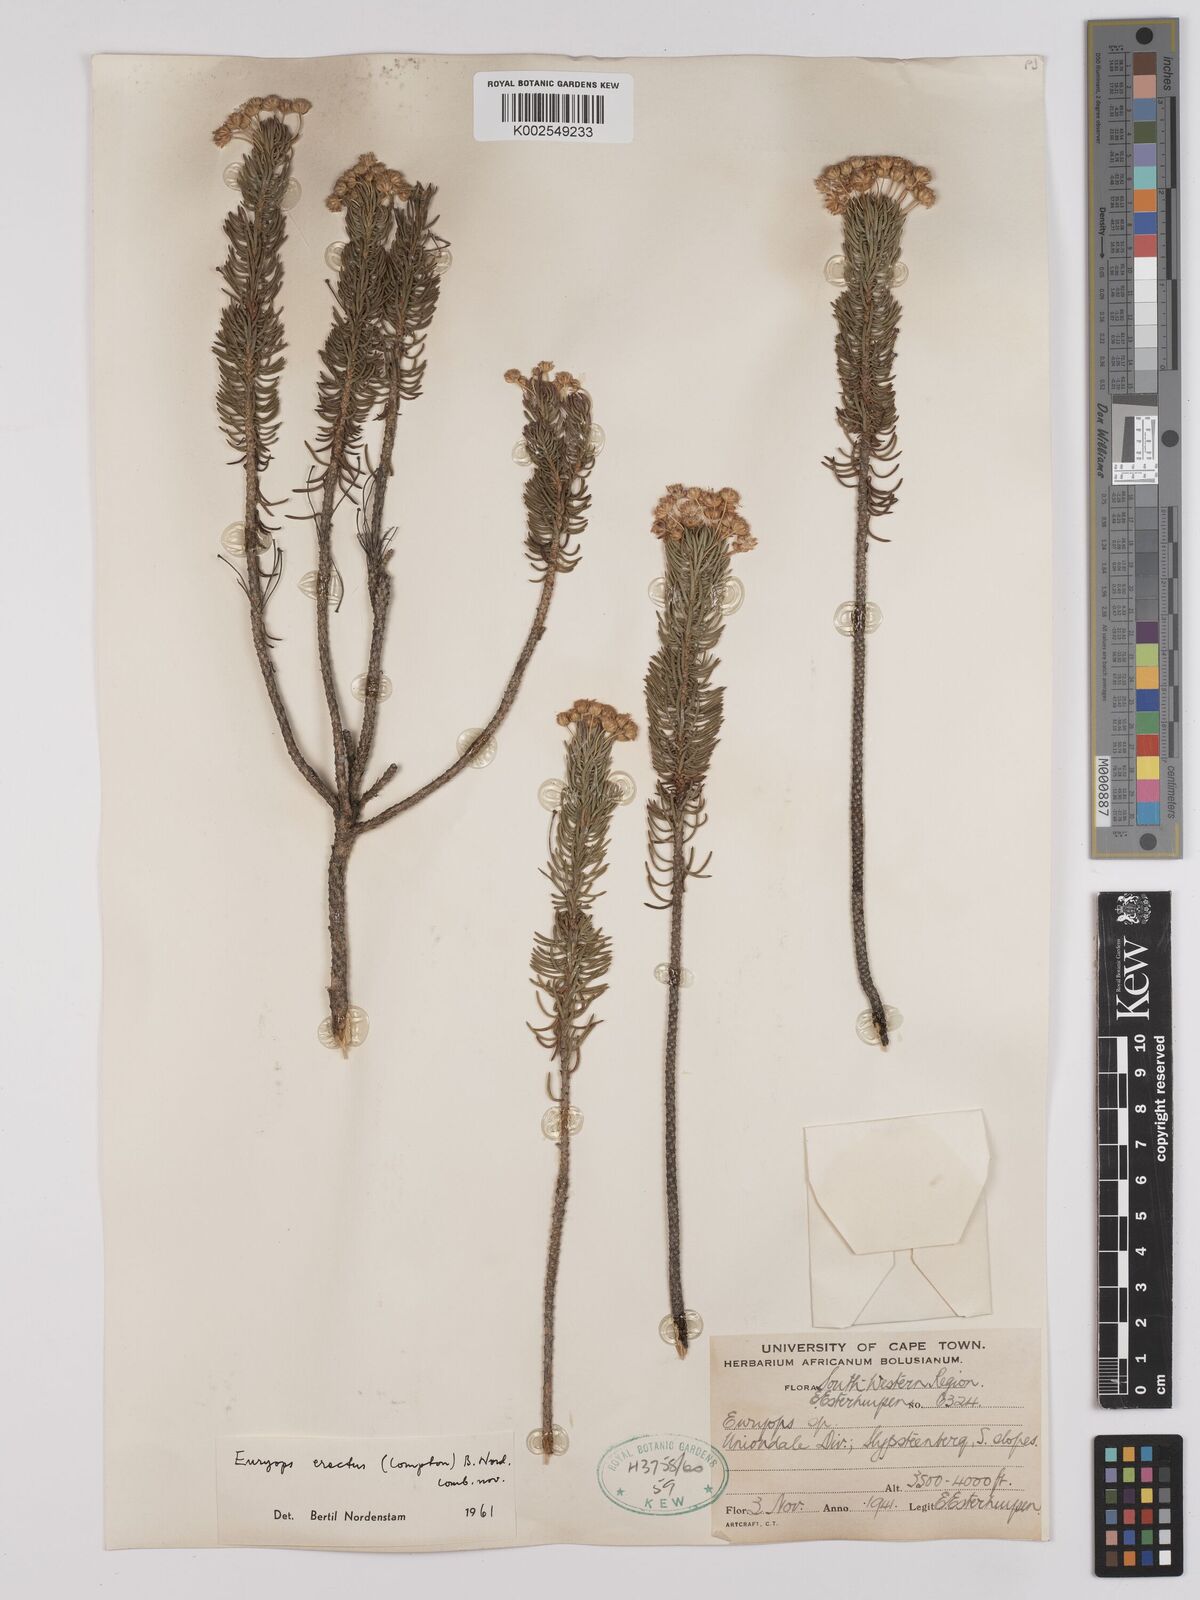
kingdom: Plantae
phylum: Tracheophyta
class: Magnoliopsida
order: Asterales
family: Asteraceae
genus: Euryops
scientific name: Euryops erectus
